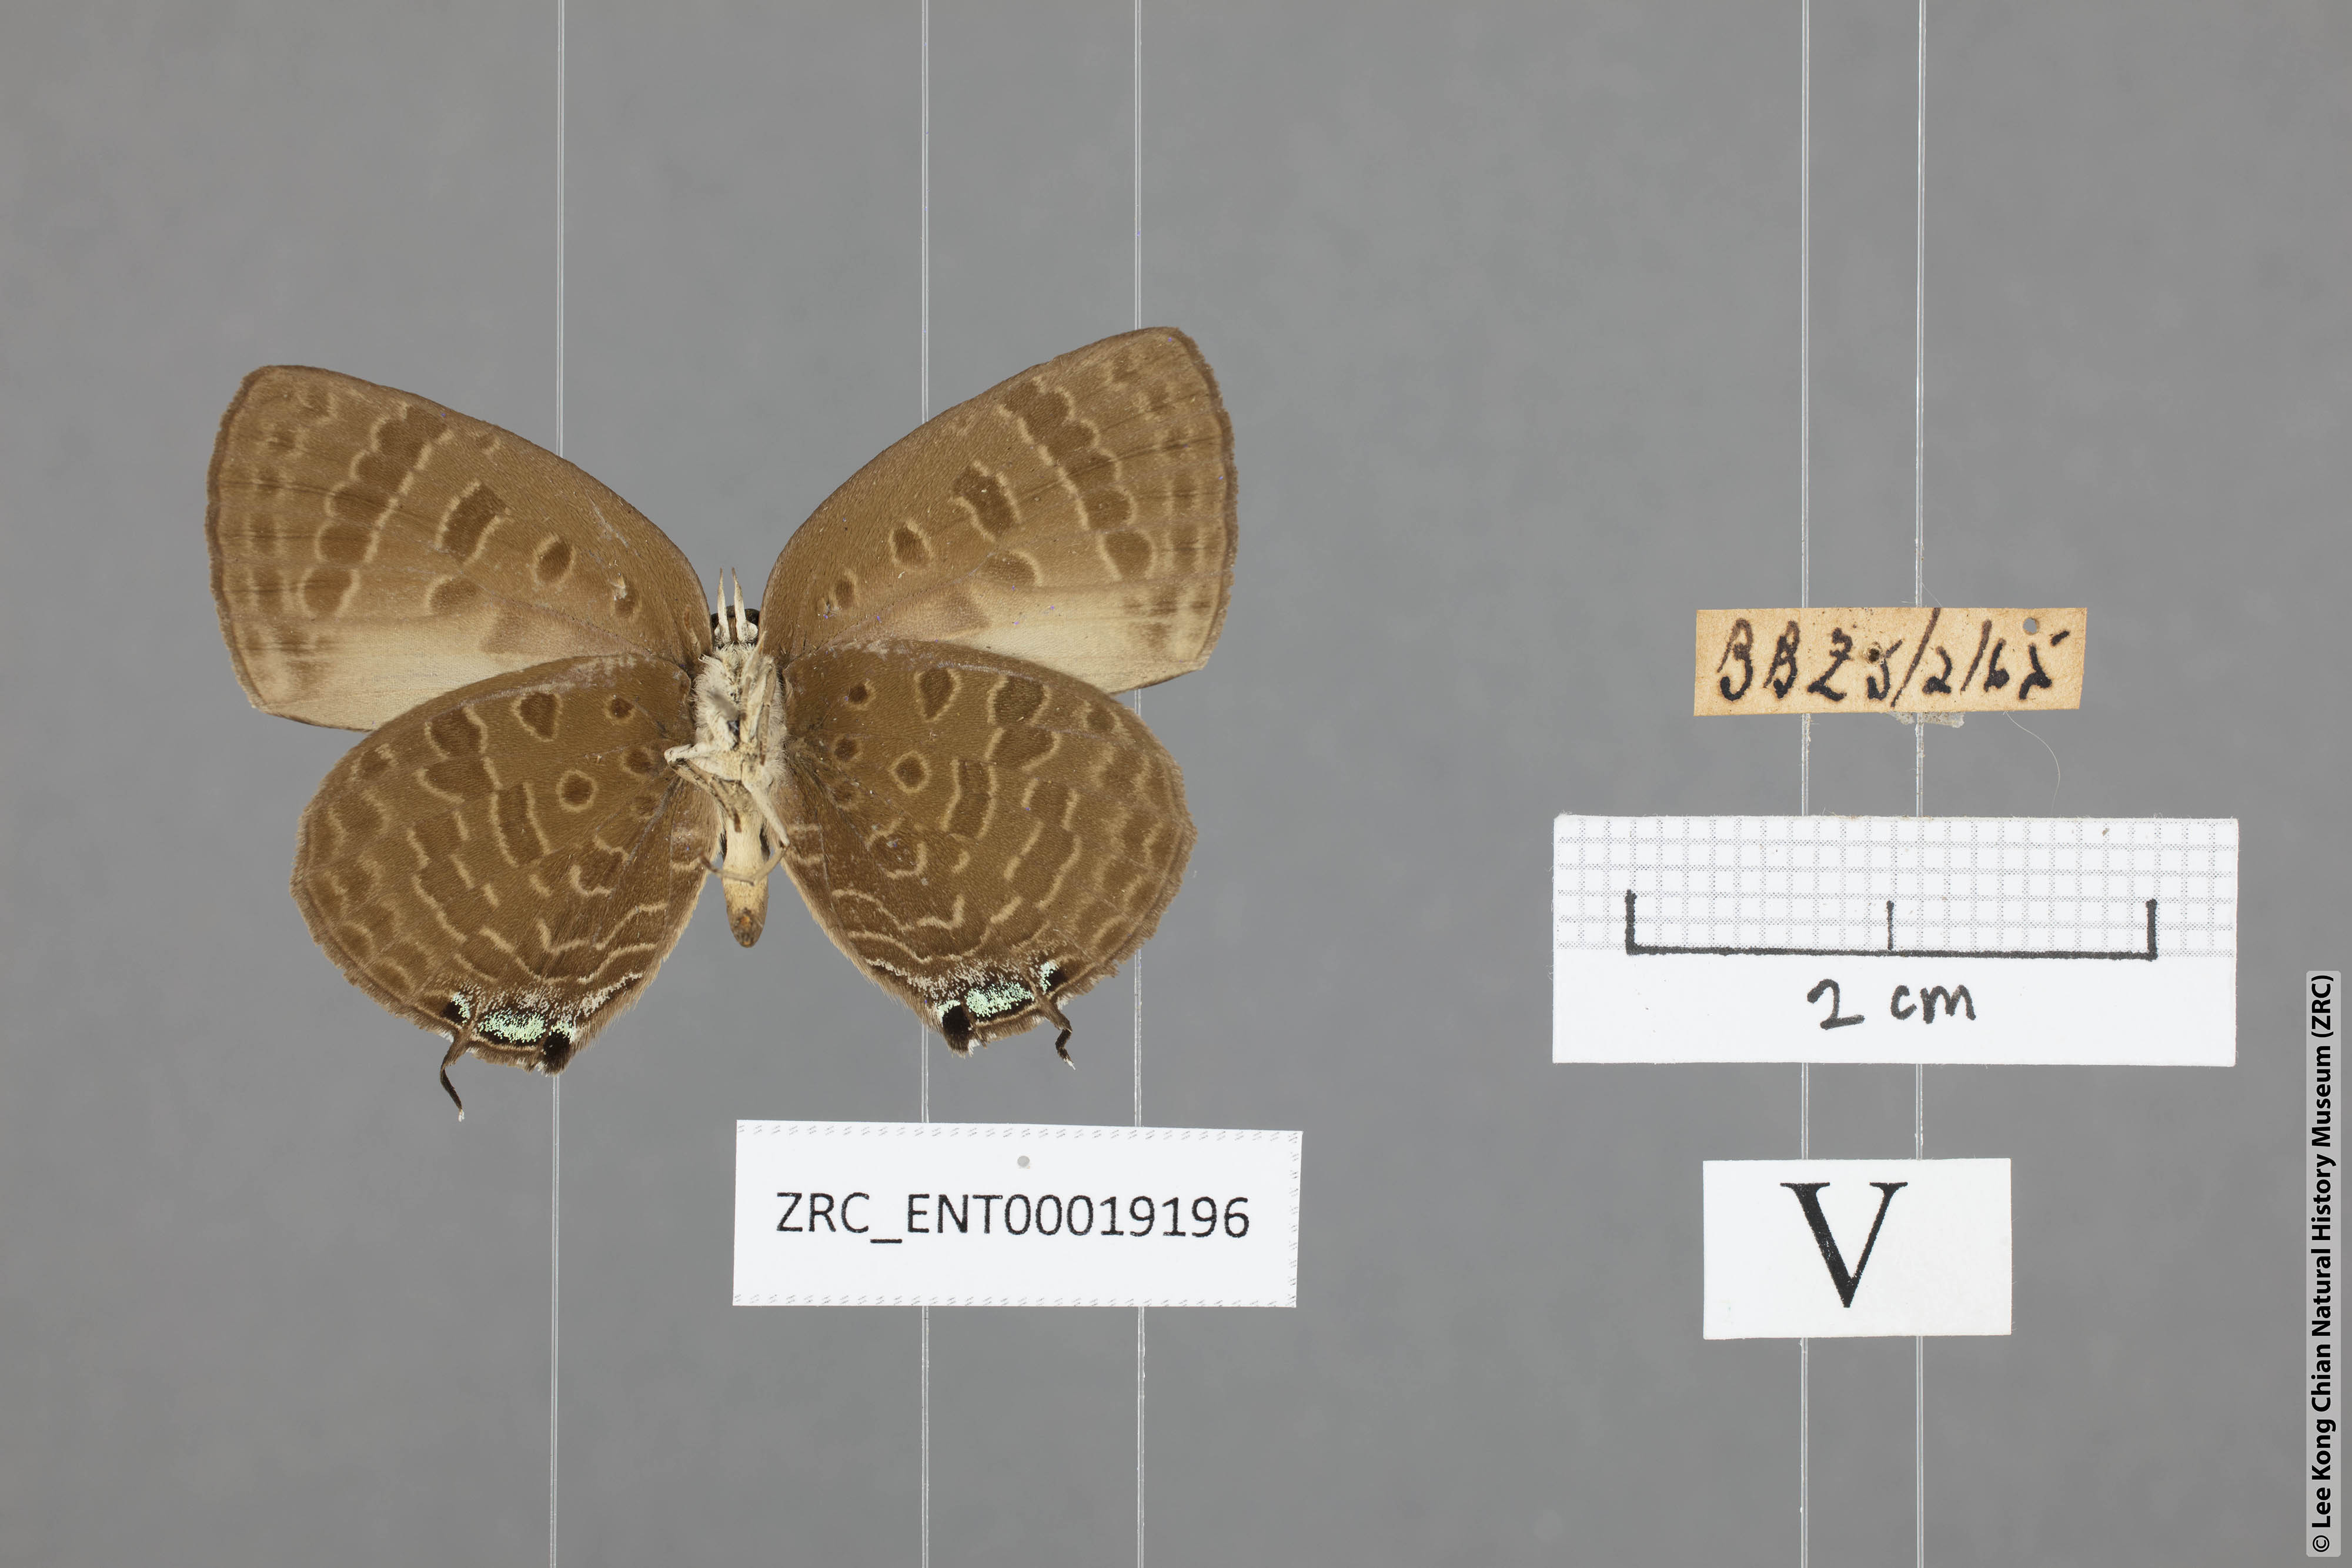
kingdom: Animalia
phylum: Arthropoda
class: Insecta
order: Lepidoptera
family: Lycaenidae
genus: Arhopala
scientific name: Arhopala aroa
